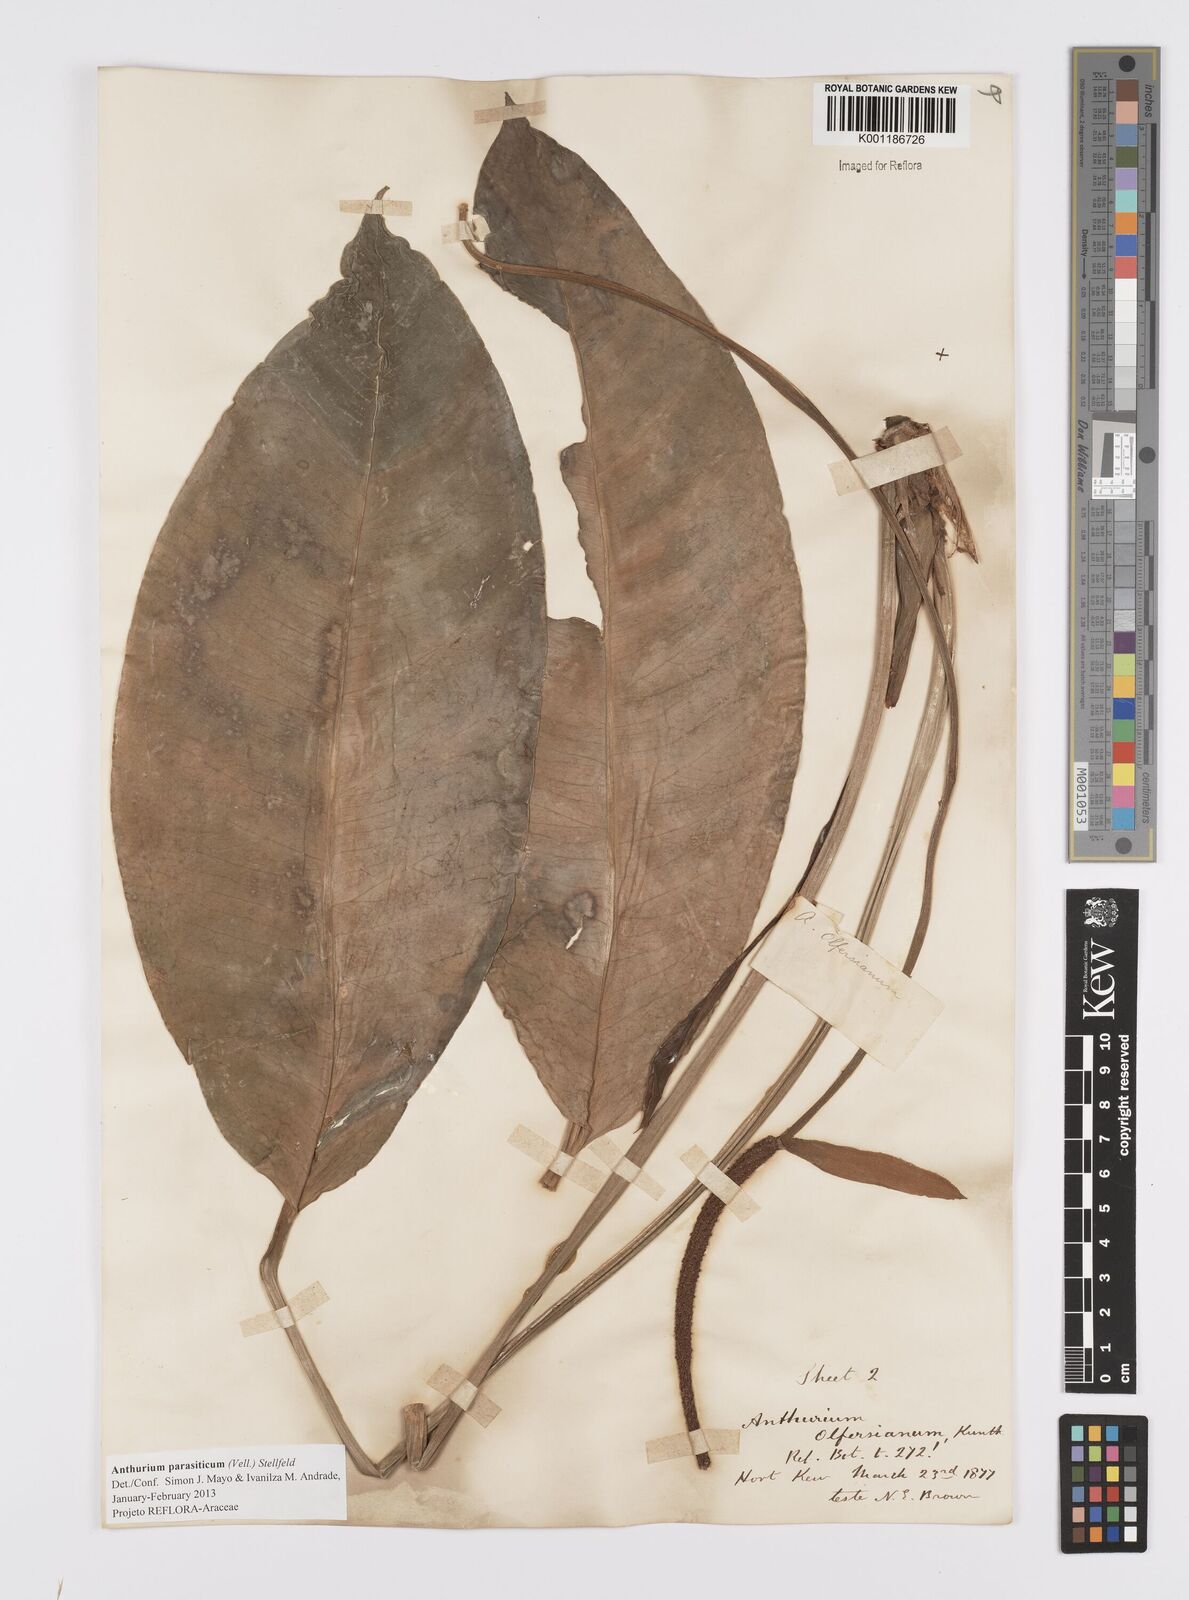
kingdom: Plantae
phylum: Tracheophyta
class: Liliopsida
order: Alismatales
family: Araceae
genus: Anthurium
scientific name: Anthurium parasiticum
